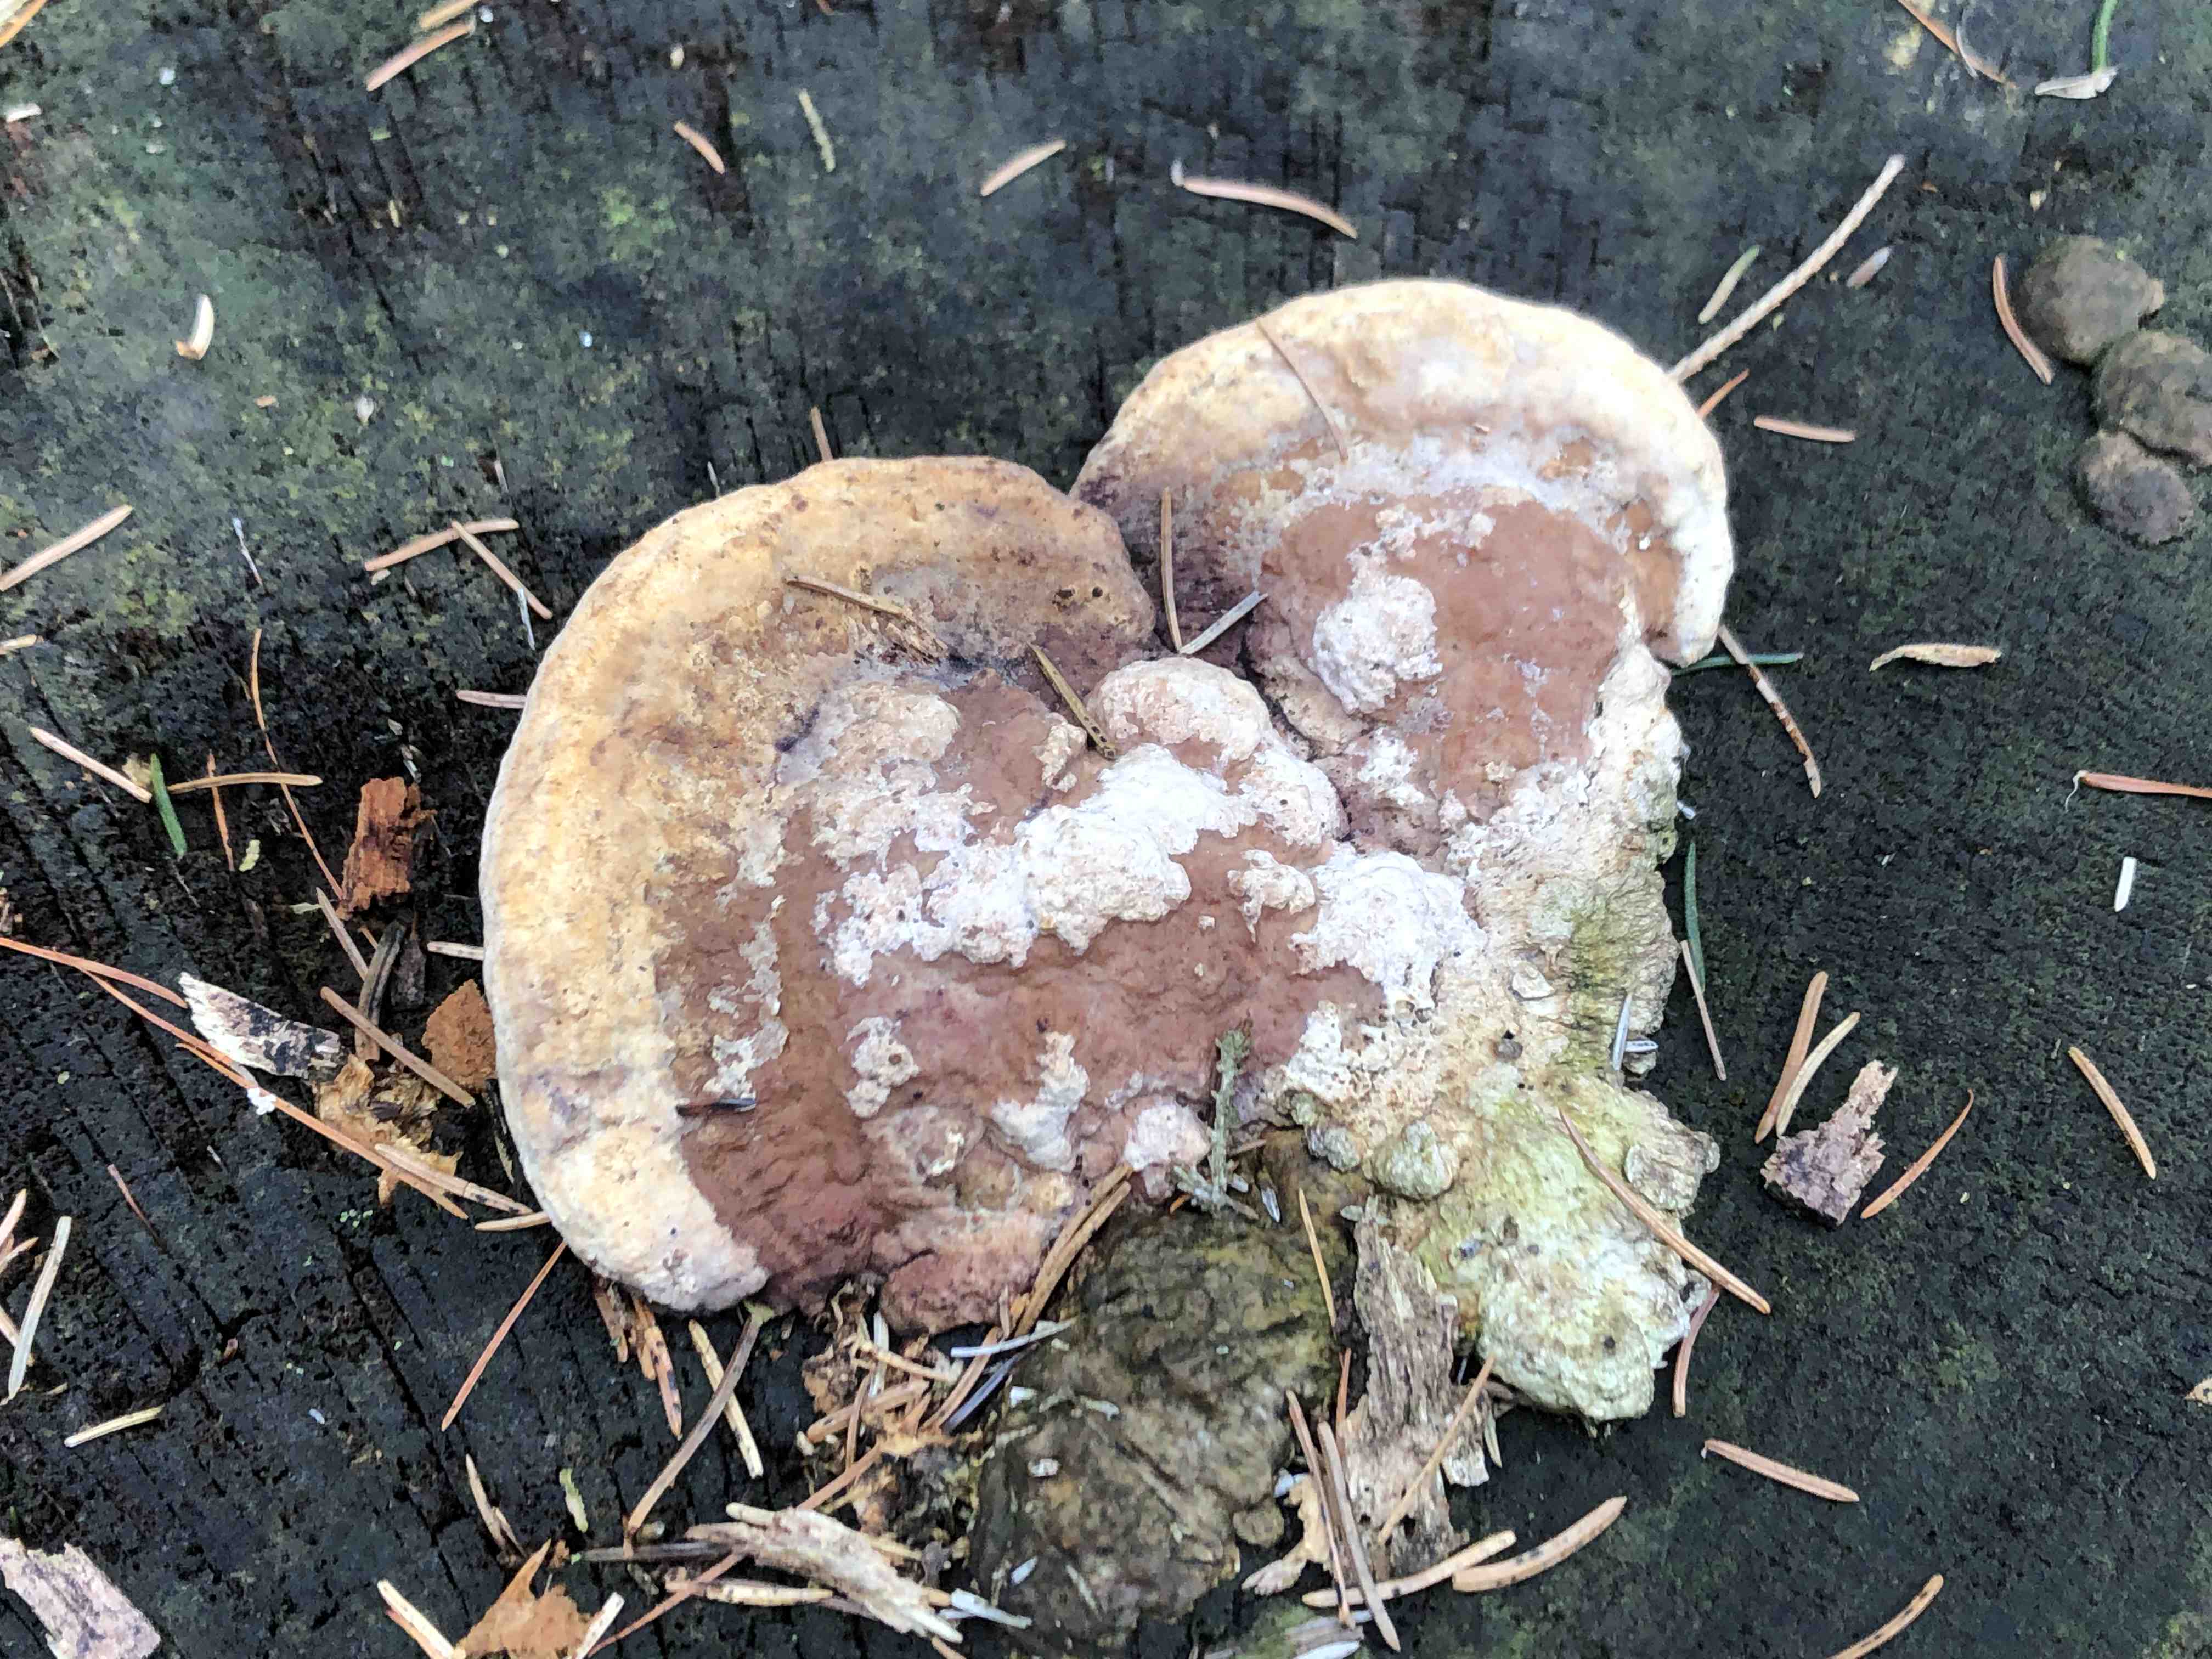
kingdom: Fungi
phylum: Basidiomycota
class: Agaricomycetes
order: Polyporales
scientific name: Polyporales
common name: poresvampordenen
